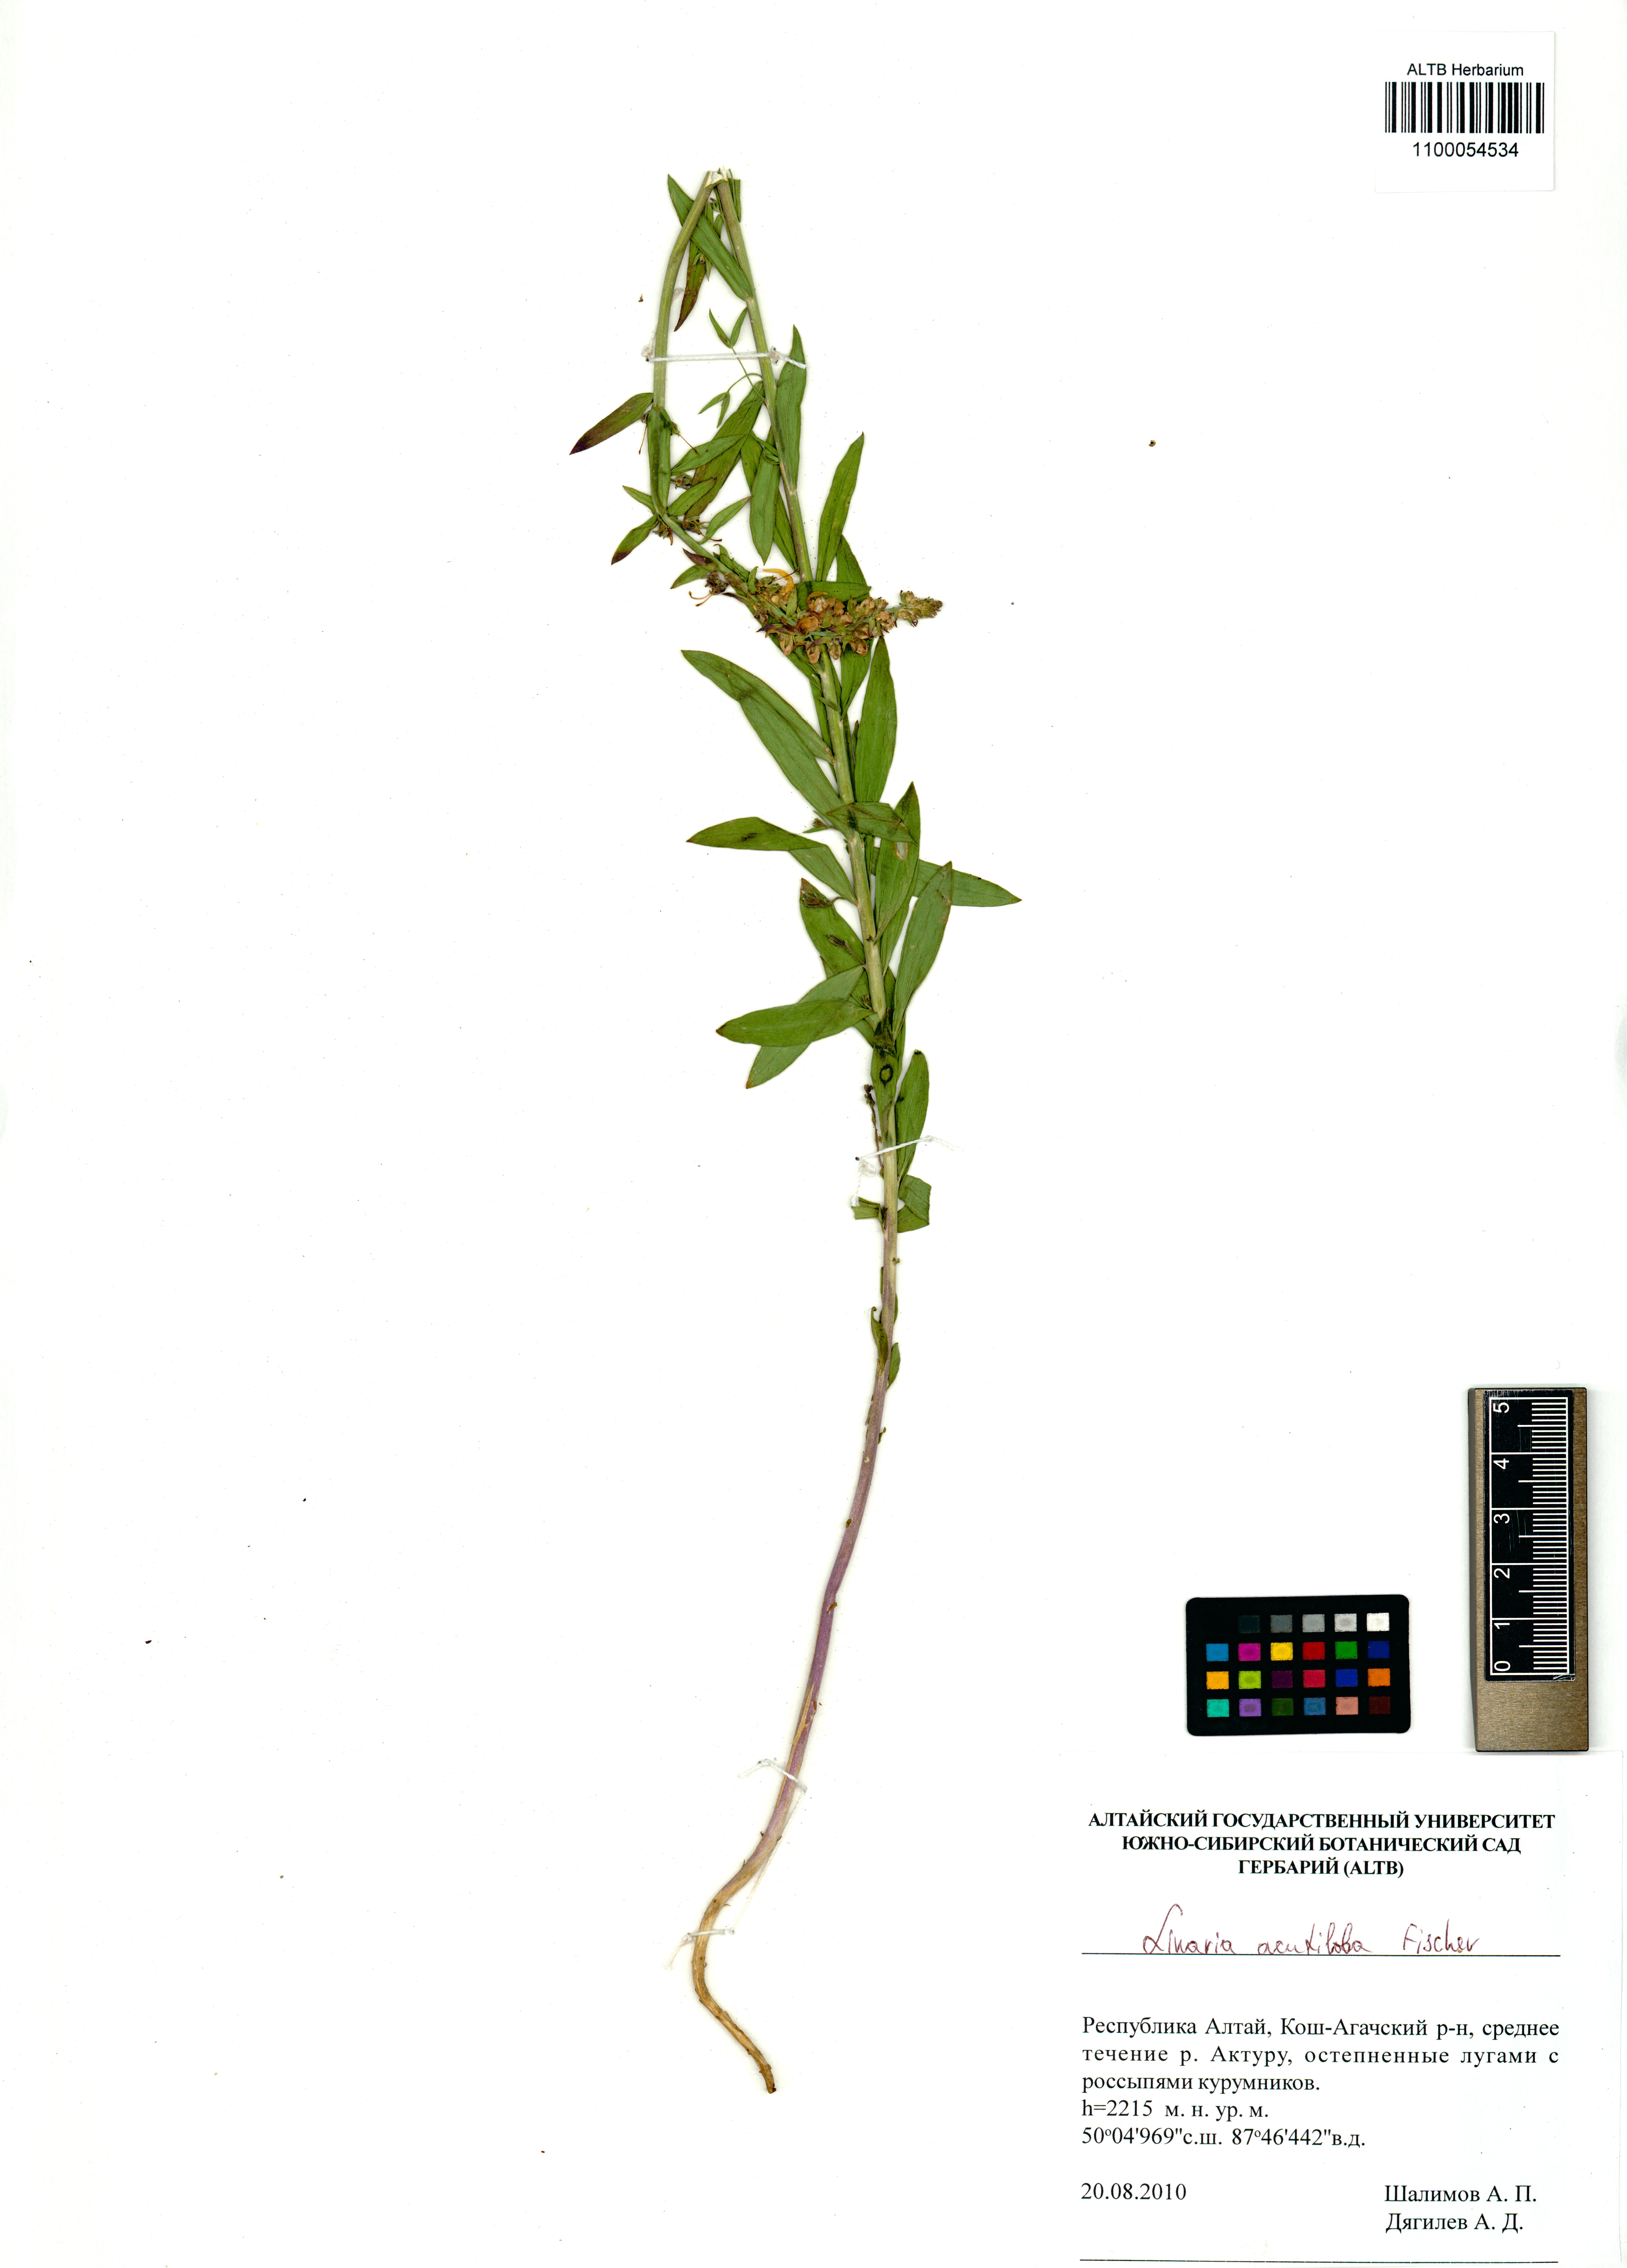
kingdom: Plantae
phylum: Tracheophyta
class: Magnoliopsida
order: Lamiales
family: Plantaginaceae
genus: Linaria
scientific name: Linaria acutiloba
